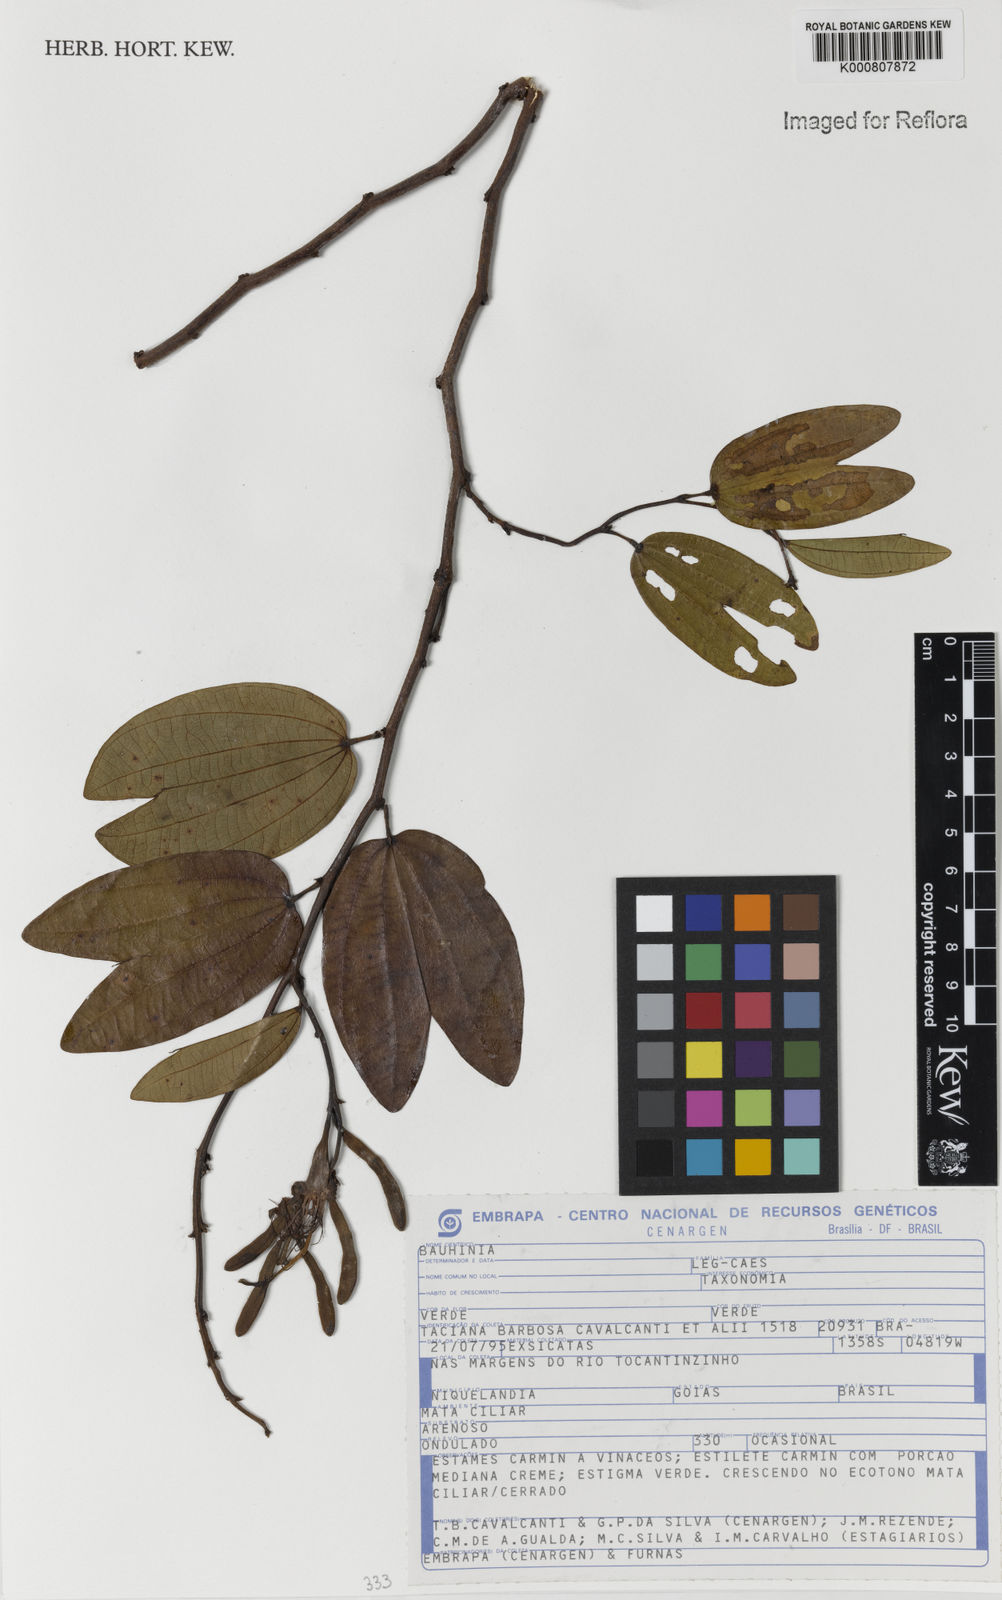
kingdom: Plantae
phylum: Tracheophyta
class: Magnoliopsida
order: Fabales
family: Fabaceae
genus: Bauhinia
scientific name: Bauhinia
